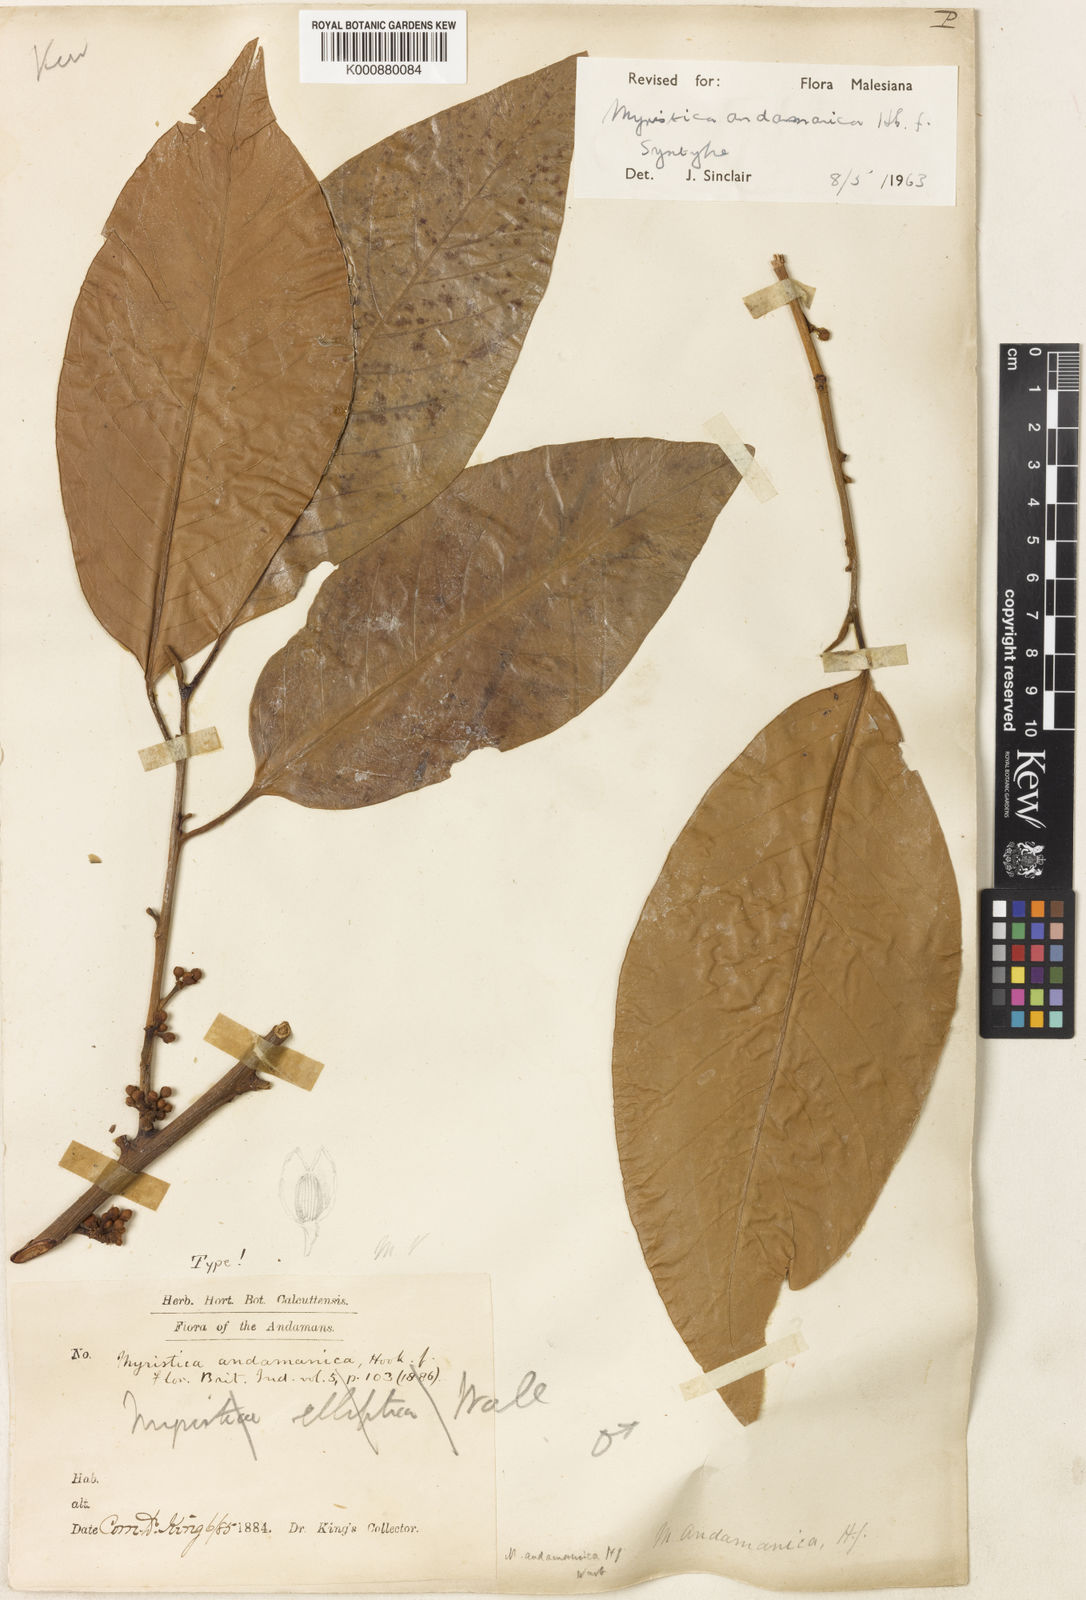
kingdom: Plantae
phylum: Tracheophyta
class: Magnoliopsida
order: Magnoliales
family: Myristicaceae
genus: Myristica
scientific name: Myristica andamanica
